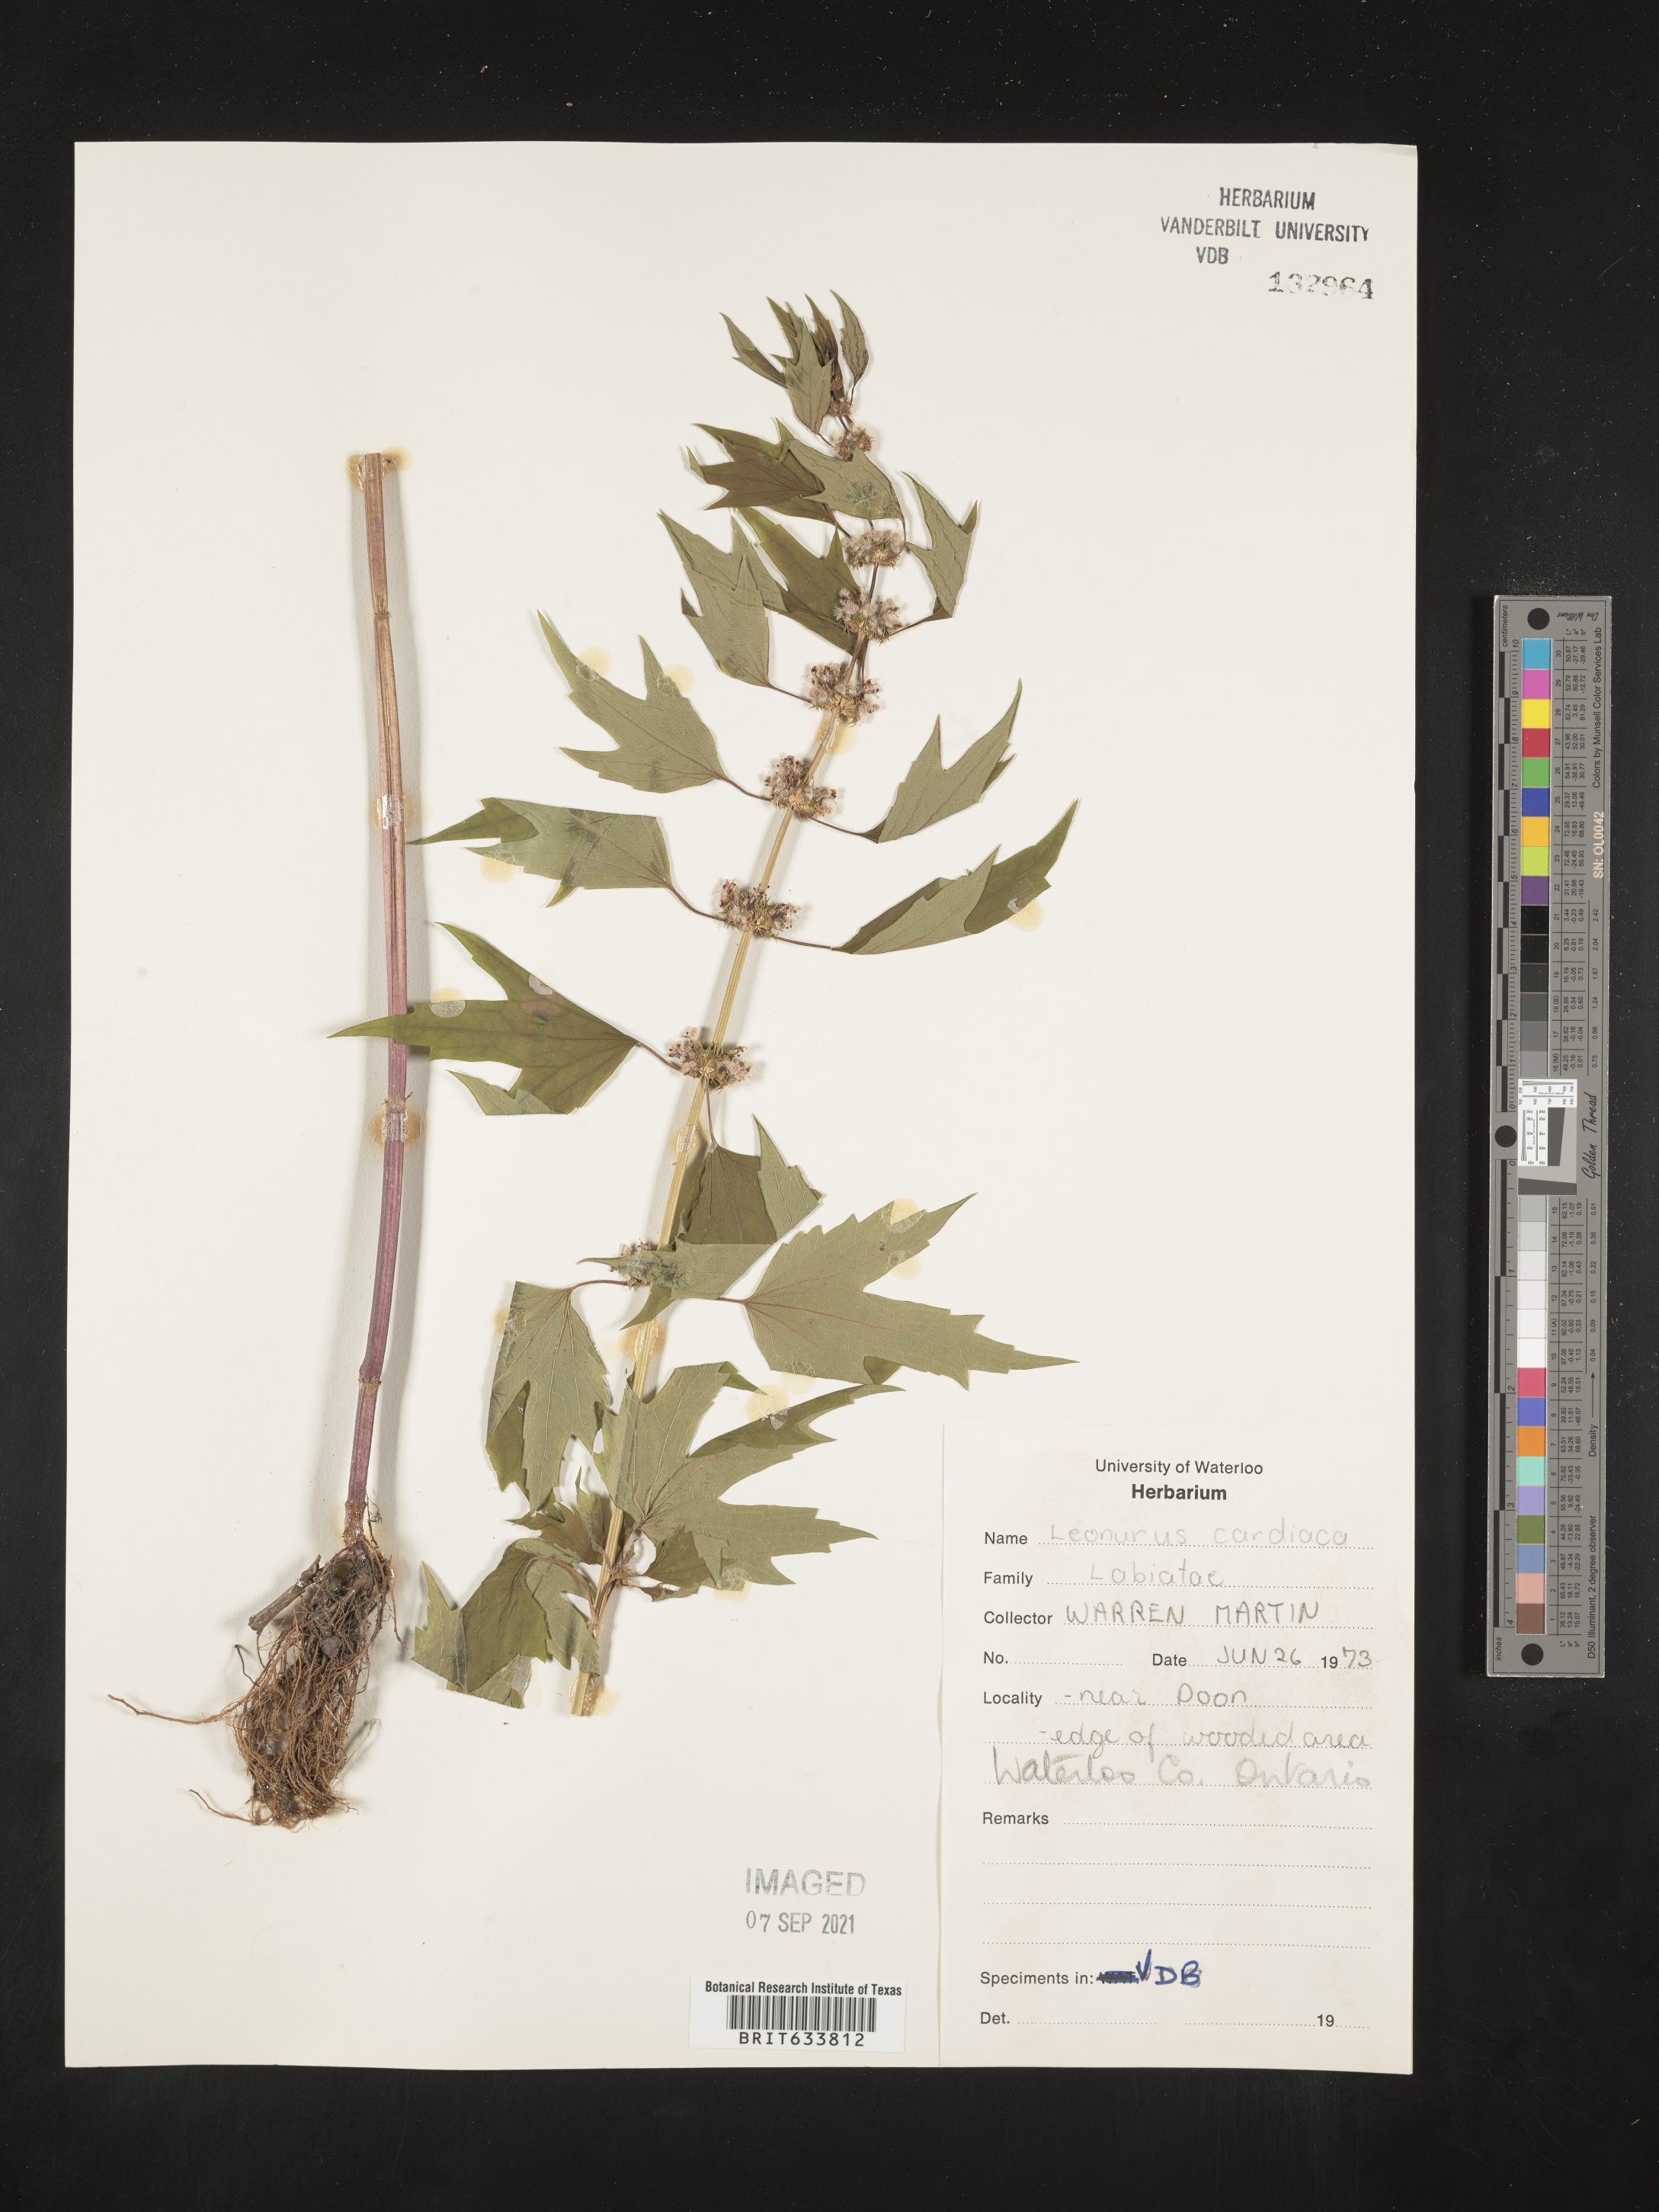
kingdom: Plantae
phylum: Tracheophyta
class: Magnoliopsida
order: Lamiales
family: Lamiaceae
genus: Leonurus
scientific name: Leonurus
